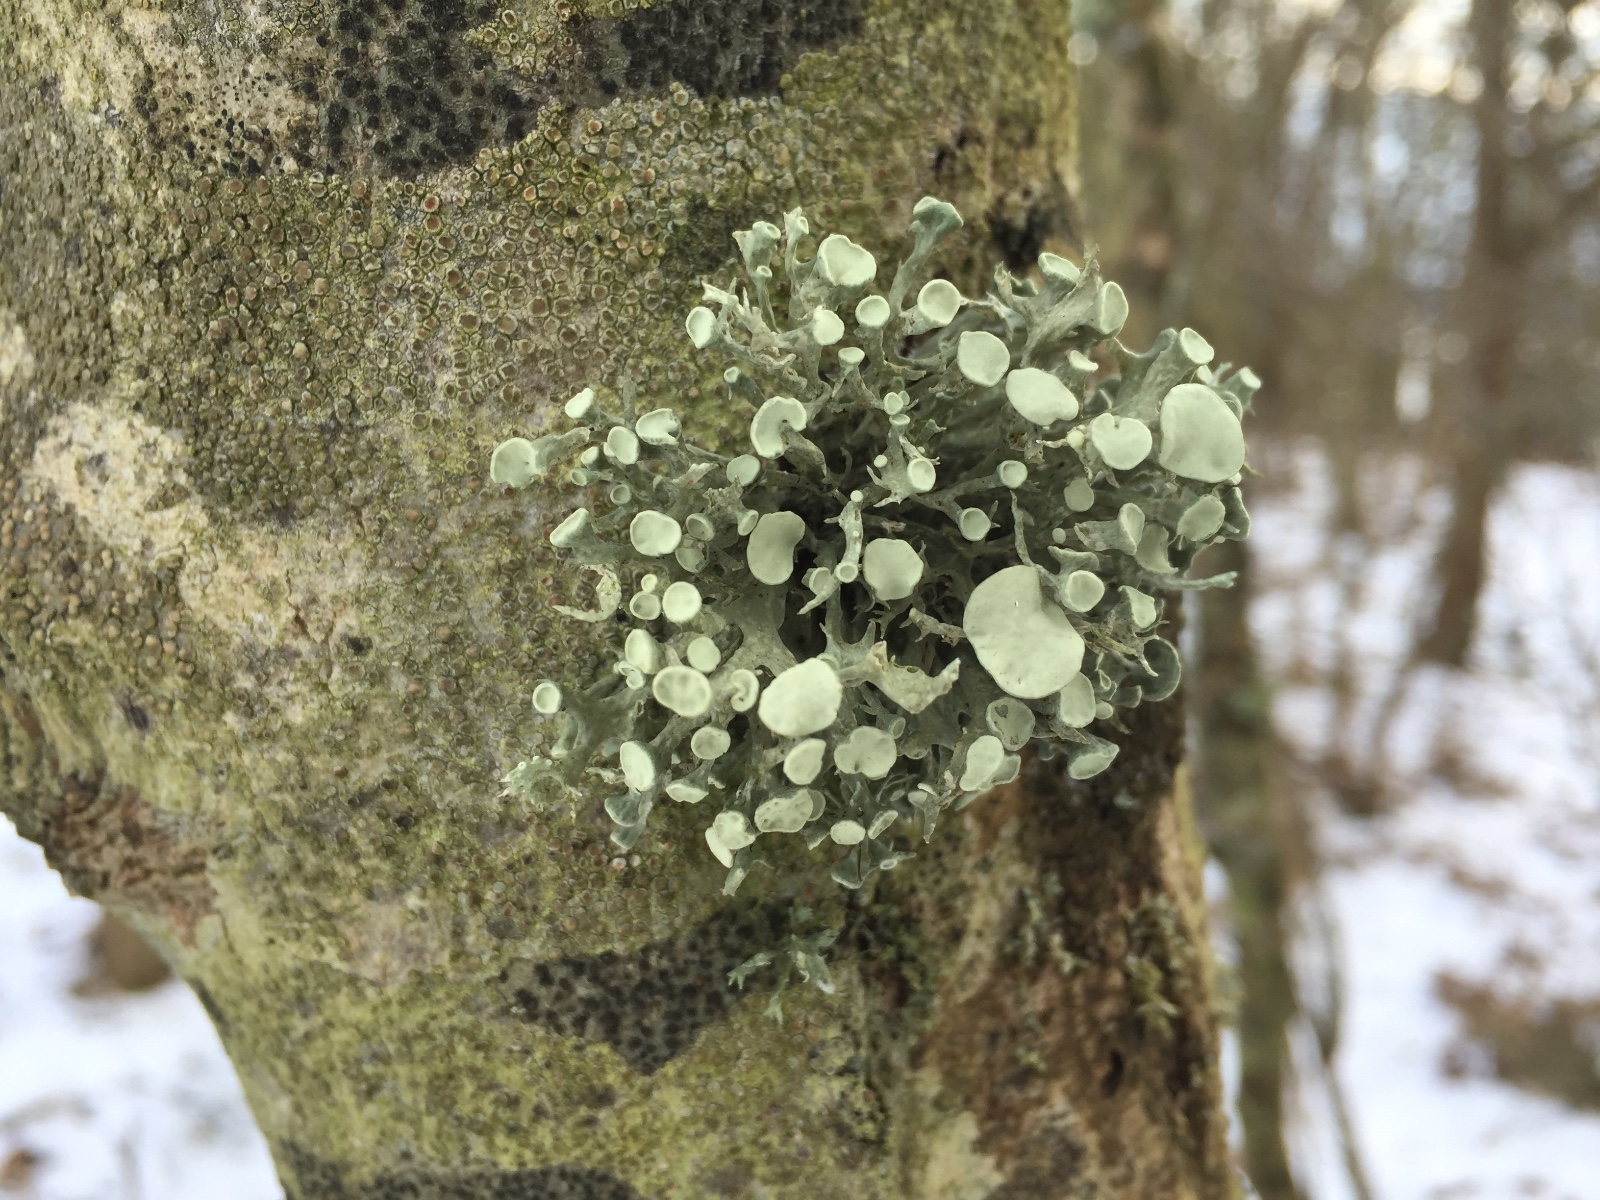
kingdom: Fungi
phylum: Ascomycota
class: Lecanoromycetes
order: Lecanorales
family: Ramalinaceae
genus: Ramalina
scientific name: Ramalina fastigiata
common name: tue-grenlav
